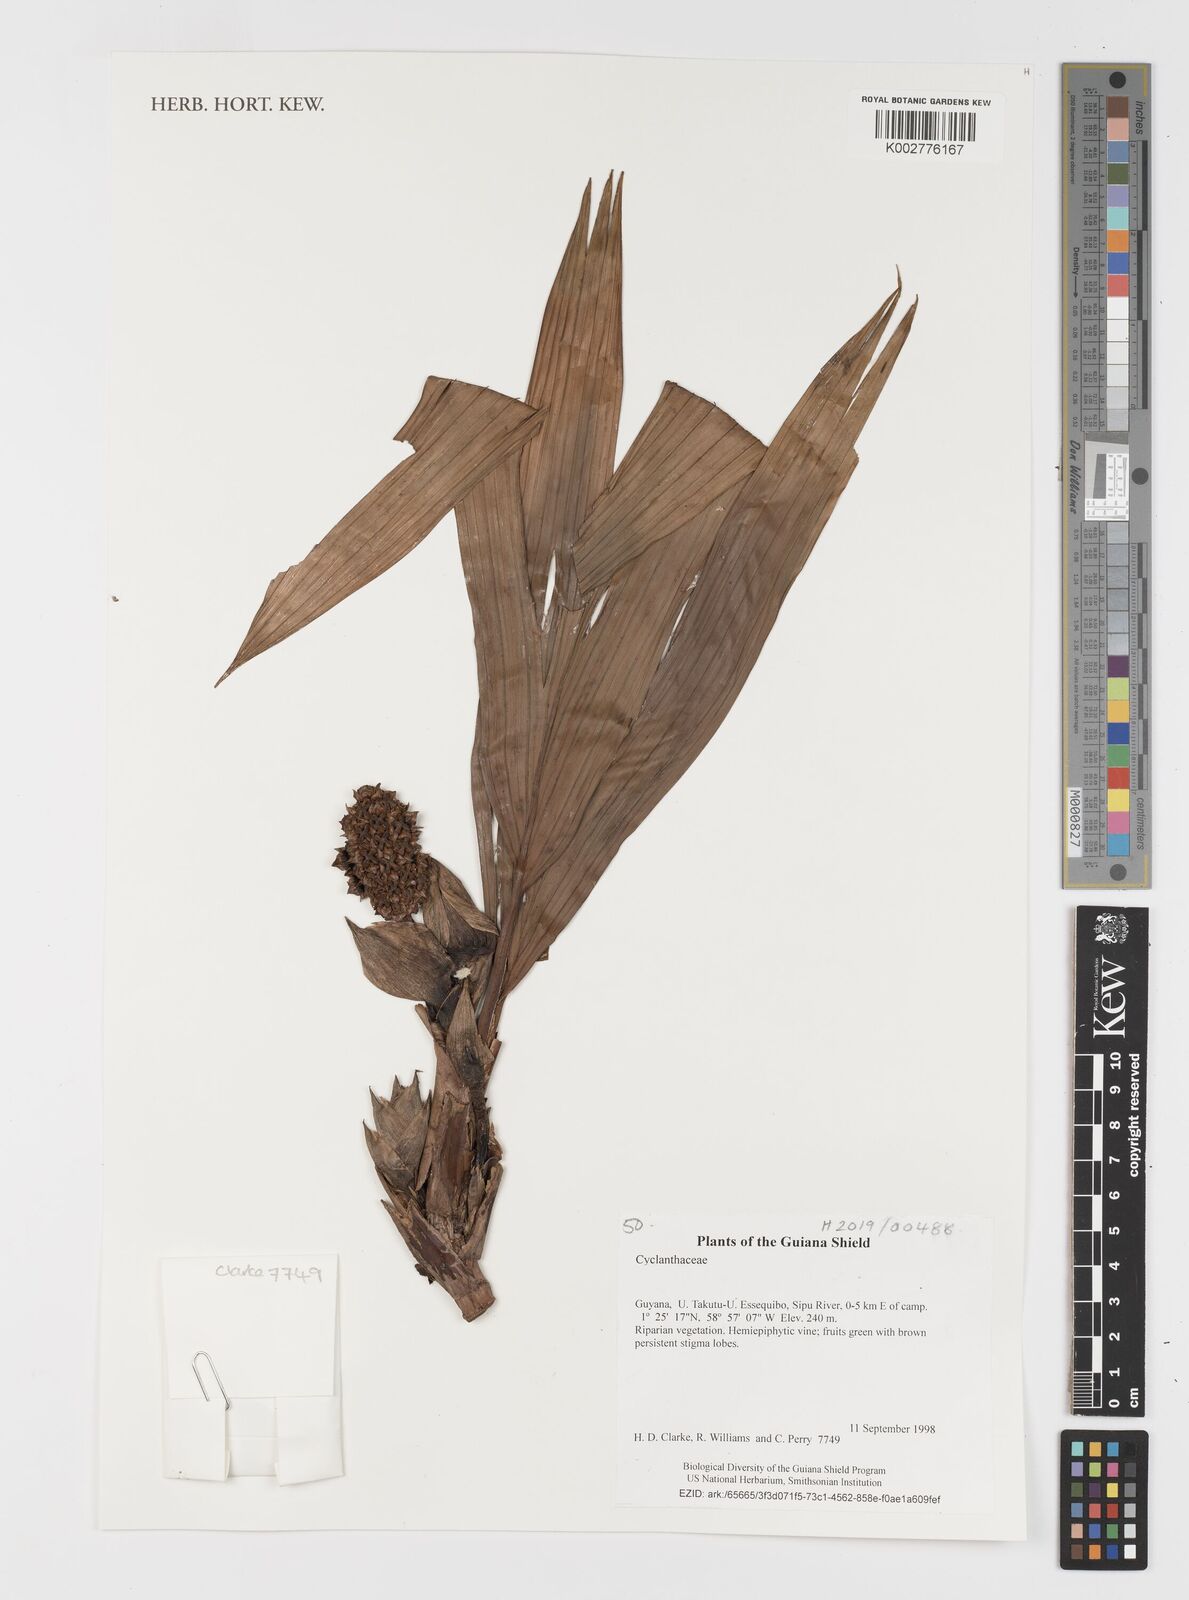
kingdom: Plantae
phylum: Tracheophyta
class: Liliopsida
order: Pandanales
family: Cyclanthaceae
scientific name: Cyclanthaceae
